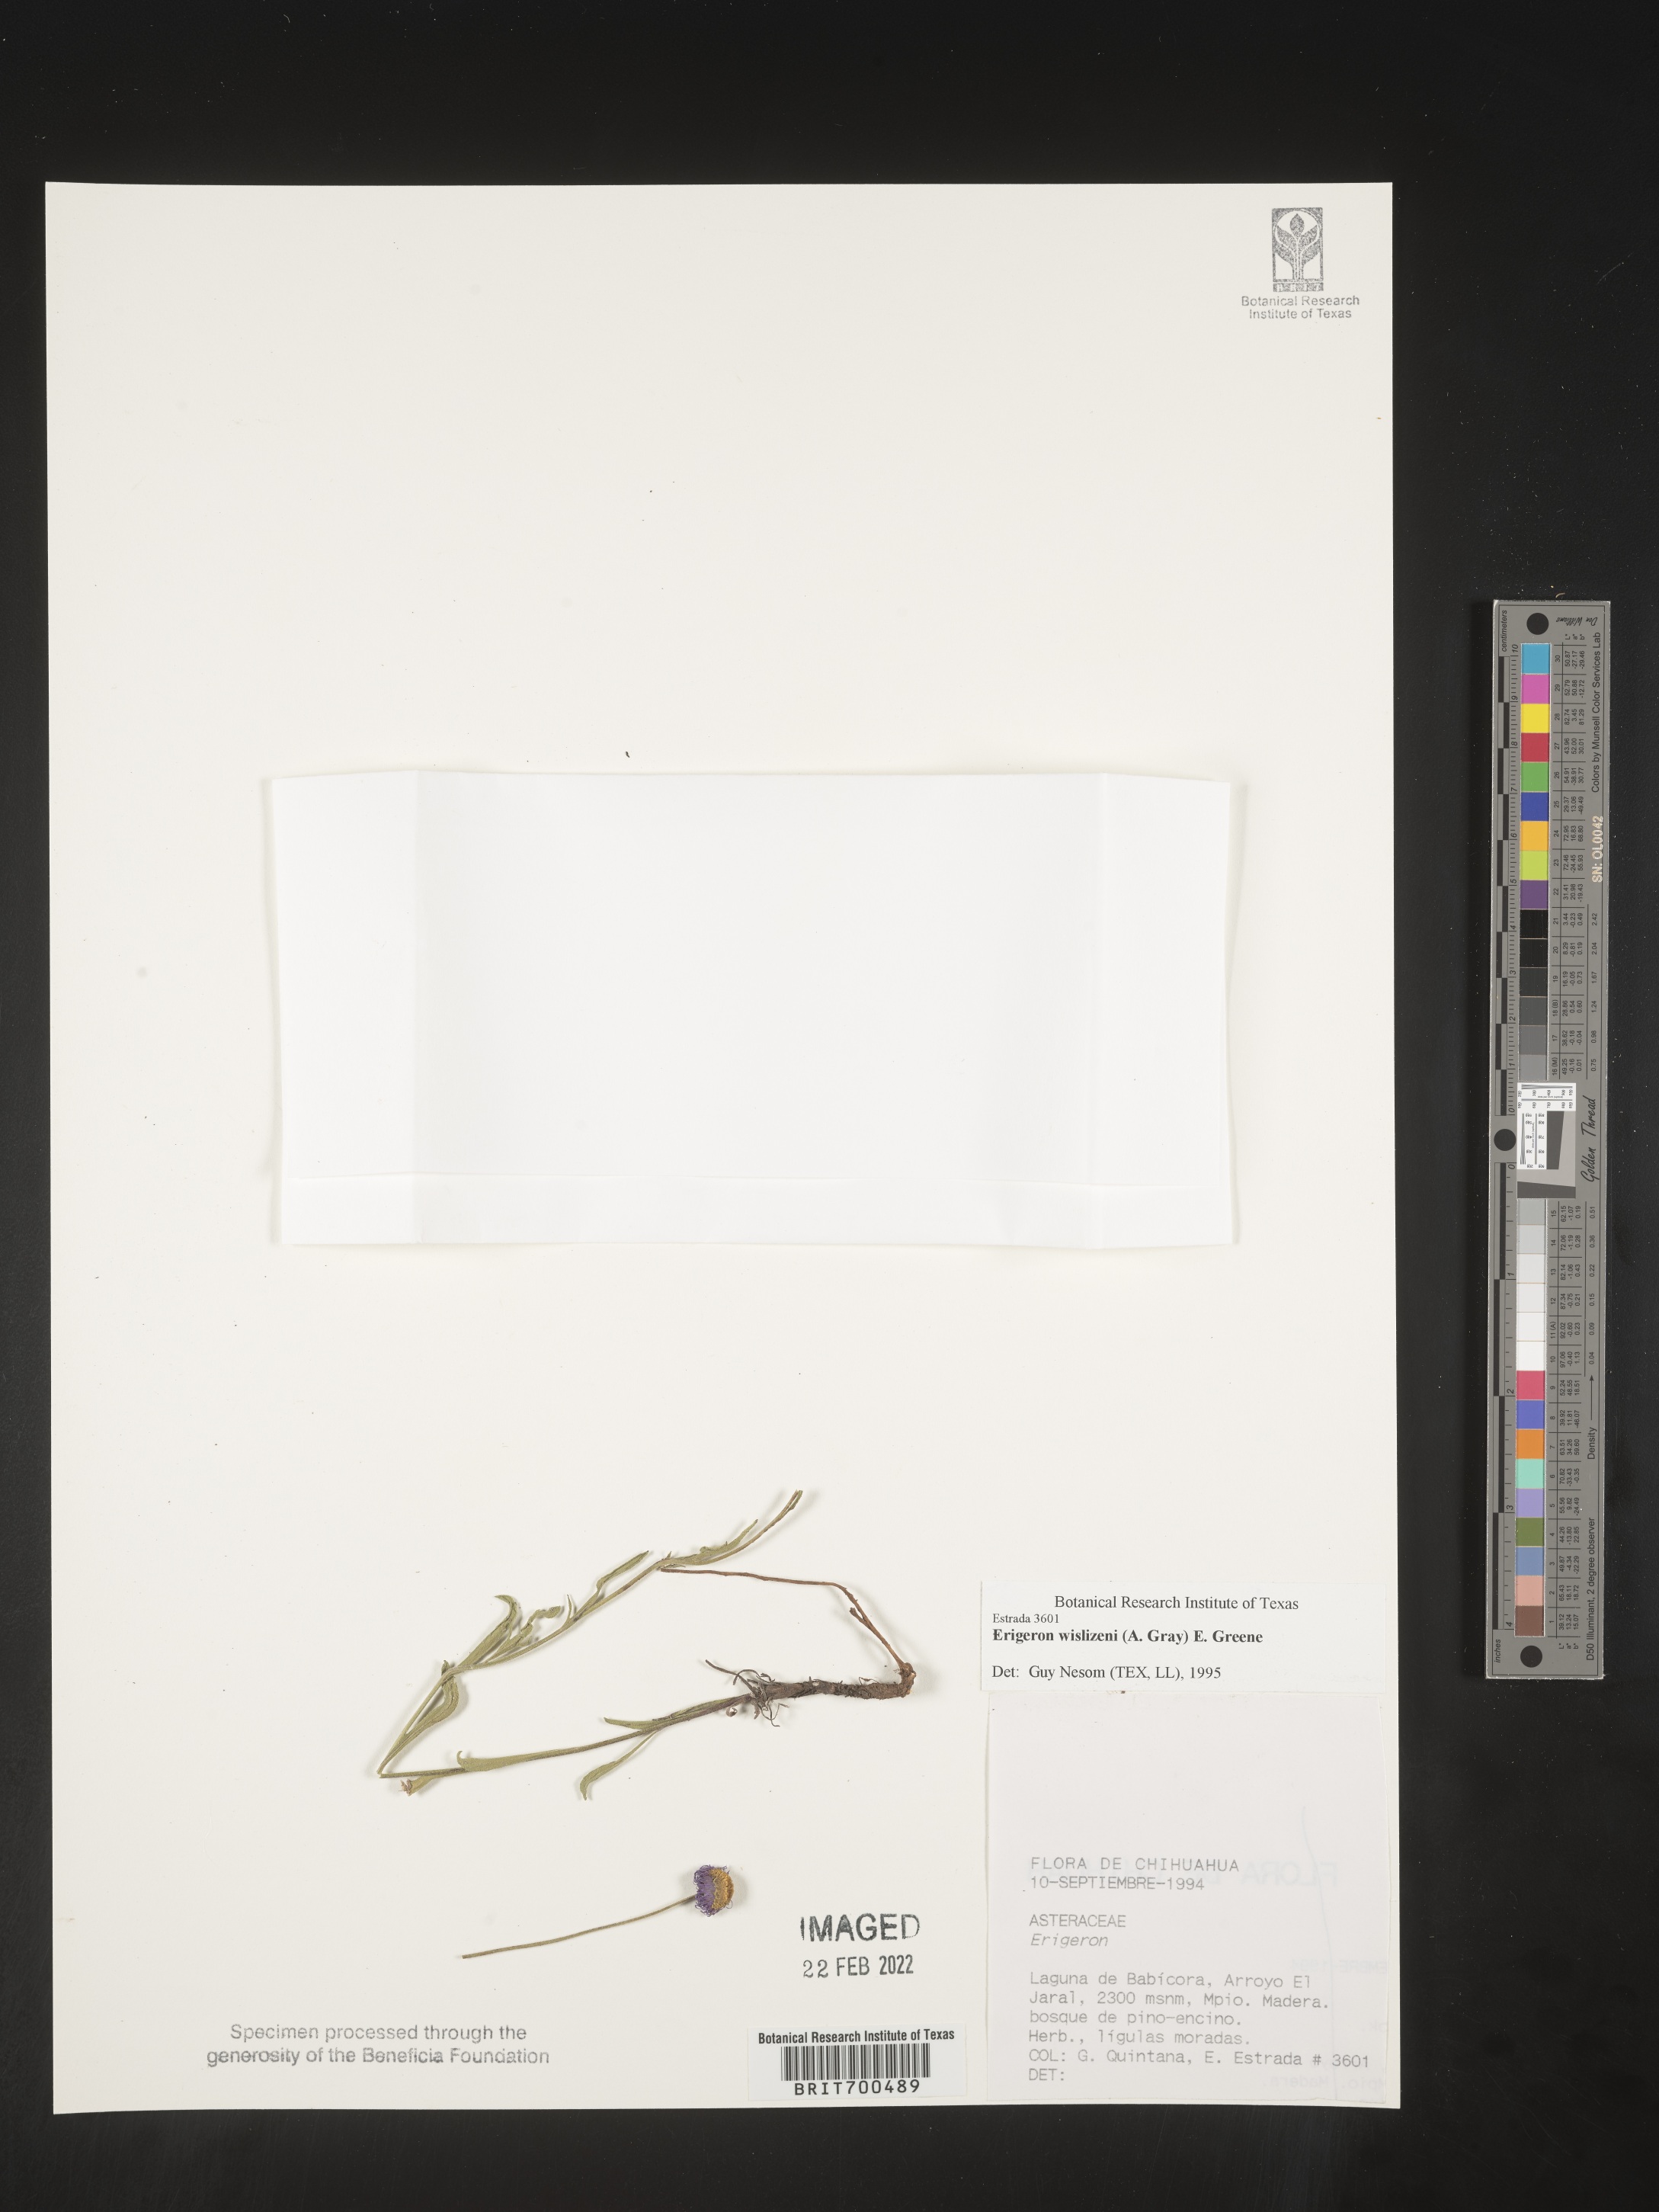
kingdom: Plantae
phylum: Tracheophyta
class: Magnoliopsida
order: Asterales
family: Asteraceae
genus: Erigeron
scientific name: Erigeron
